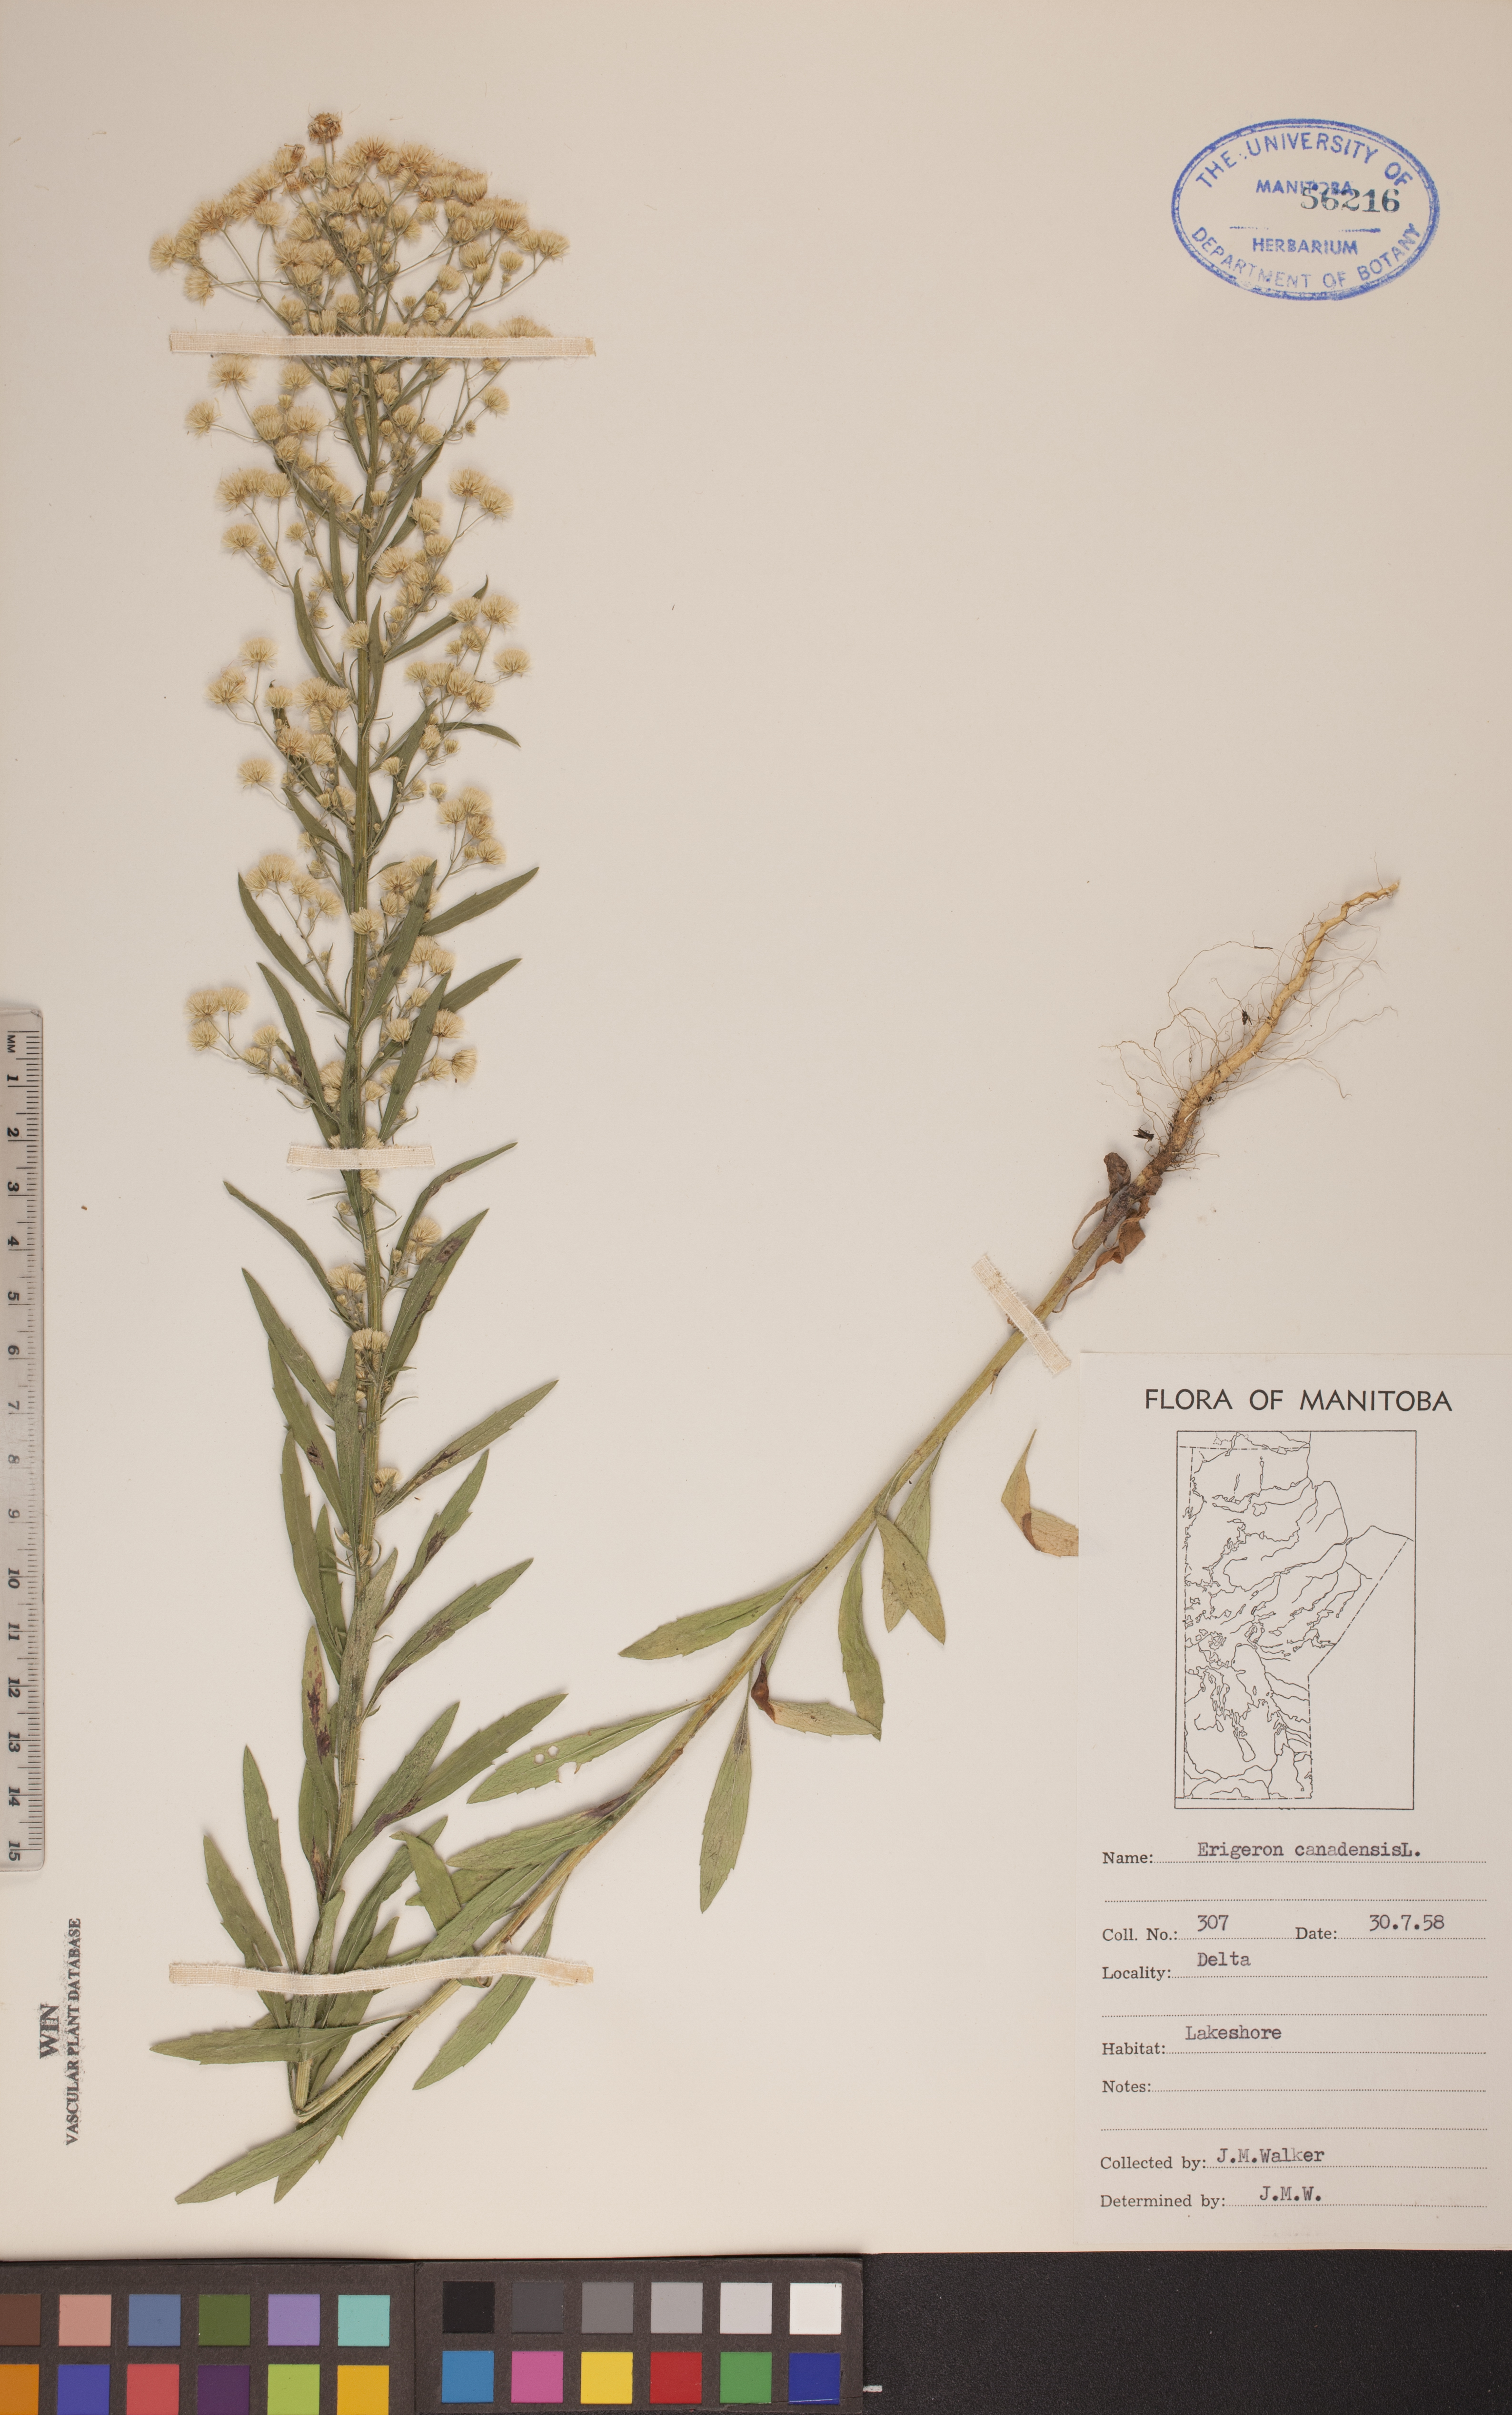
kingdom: Plantae
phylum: Tracheophyta
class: Magnoliopsida
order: Asterales
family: Asteraceae
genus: Erigeron
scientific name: Erigeron canadensis
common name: Canadian fleabane
